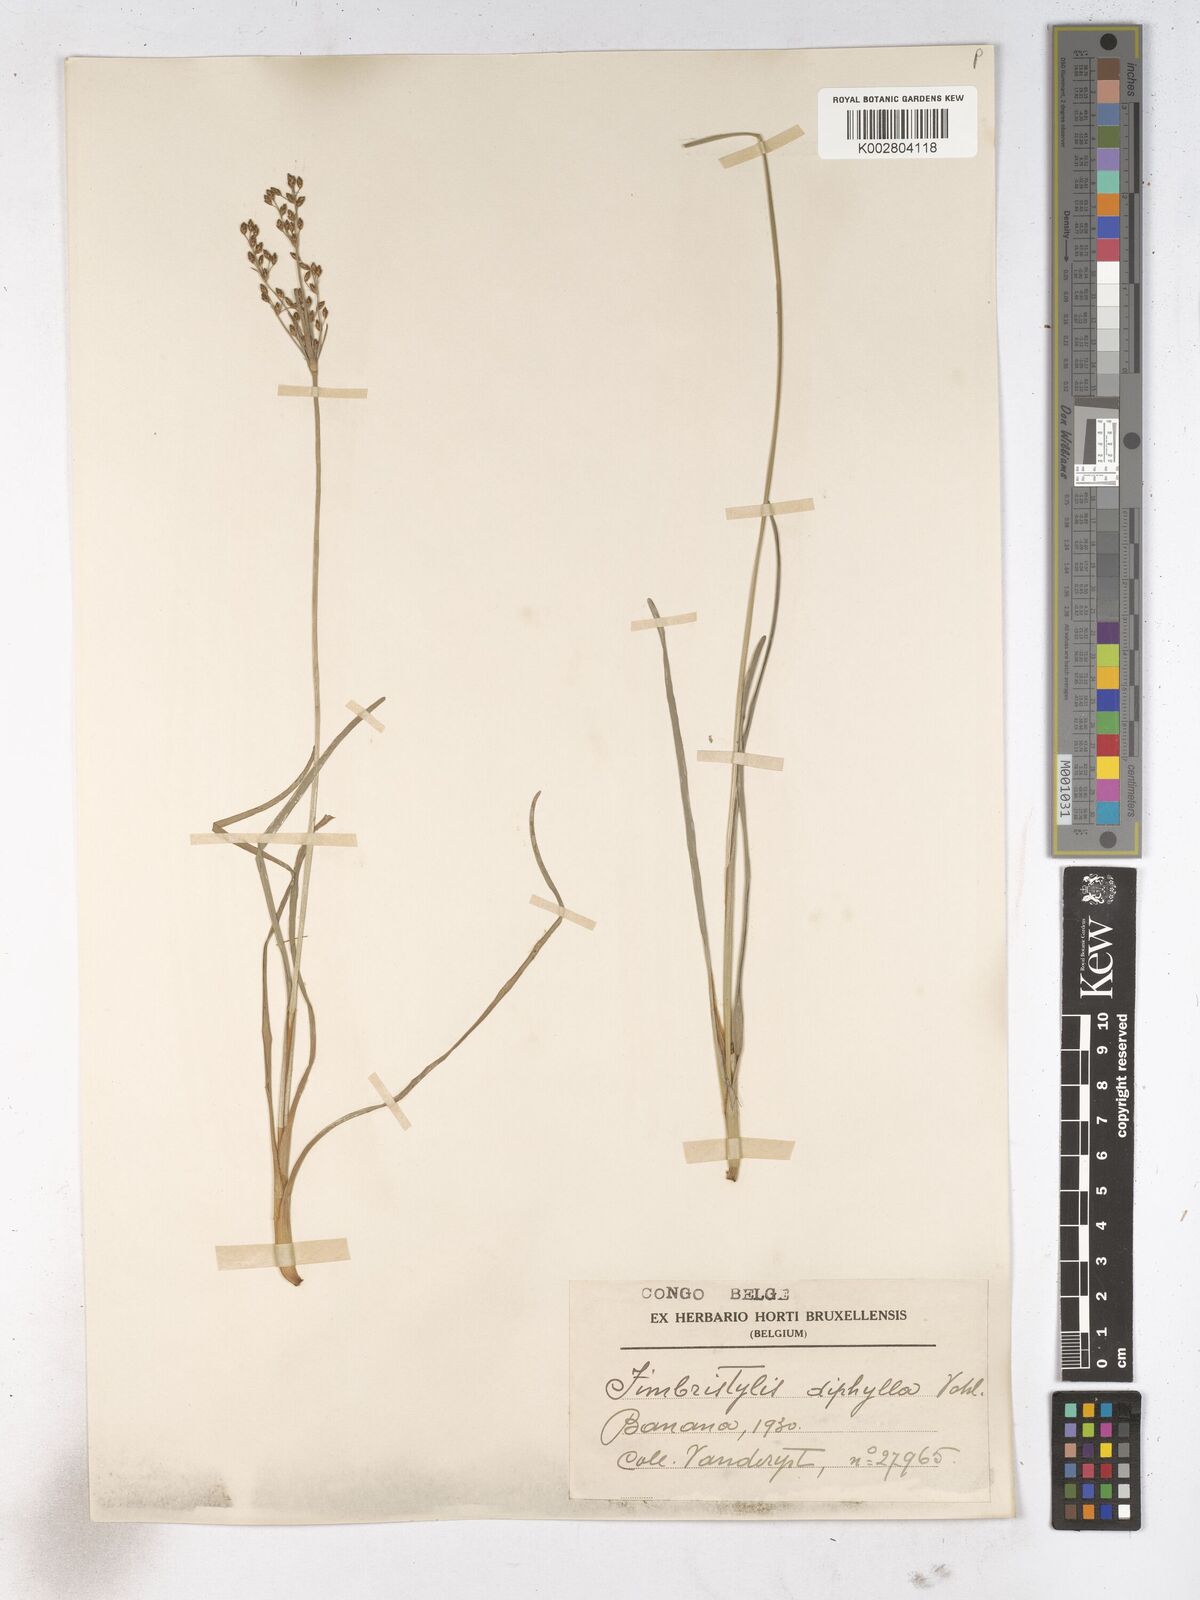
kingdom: Plantae
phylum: Tracheophyta
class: Liliopsida
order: Poales
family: Cyperaceae
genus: Fimbristylis
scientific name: Fimbristylis dichotoma
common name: Forked fimbry
